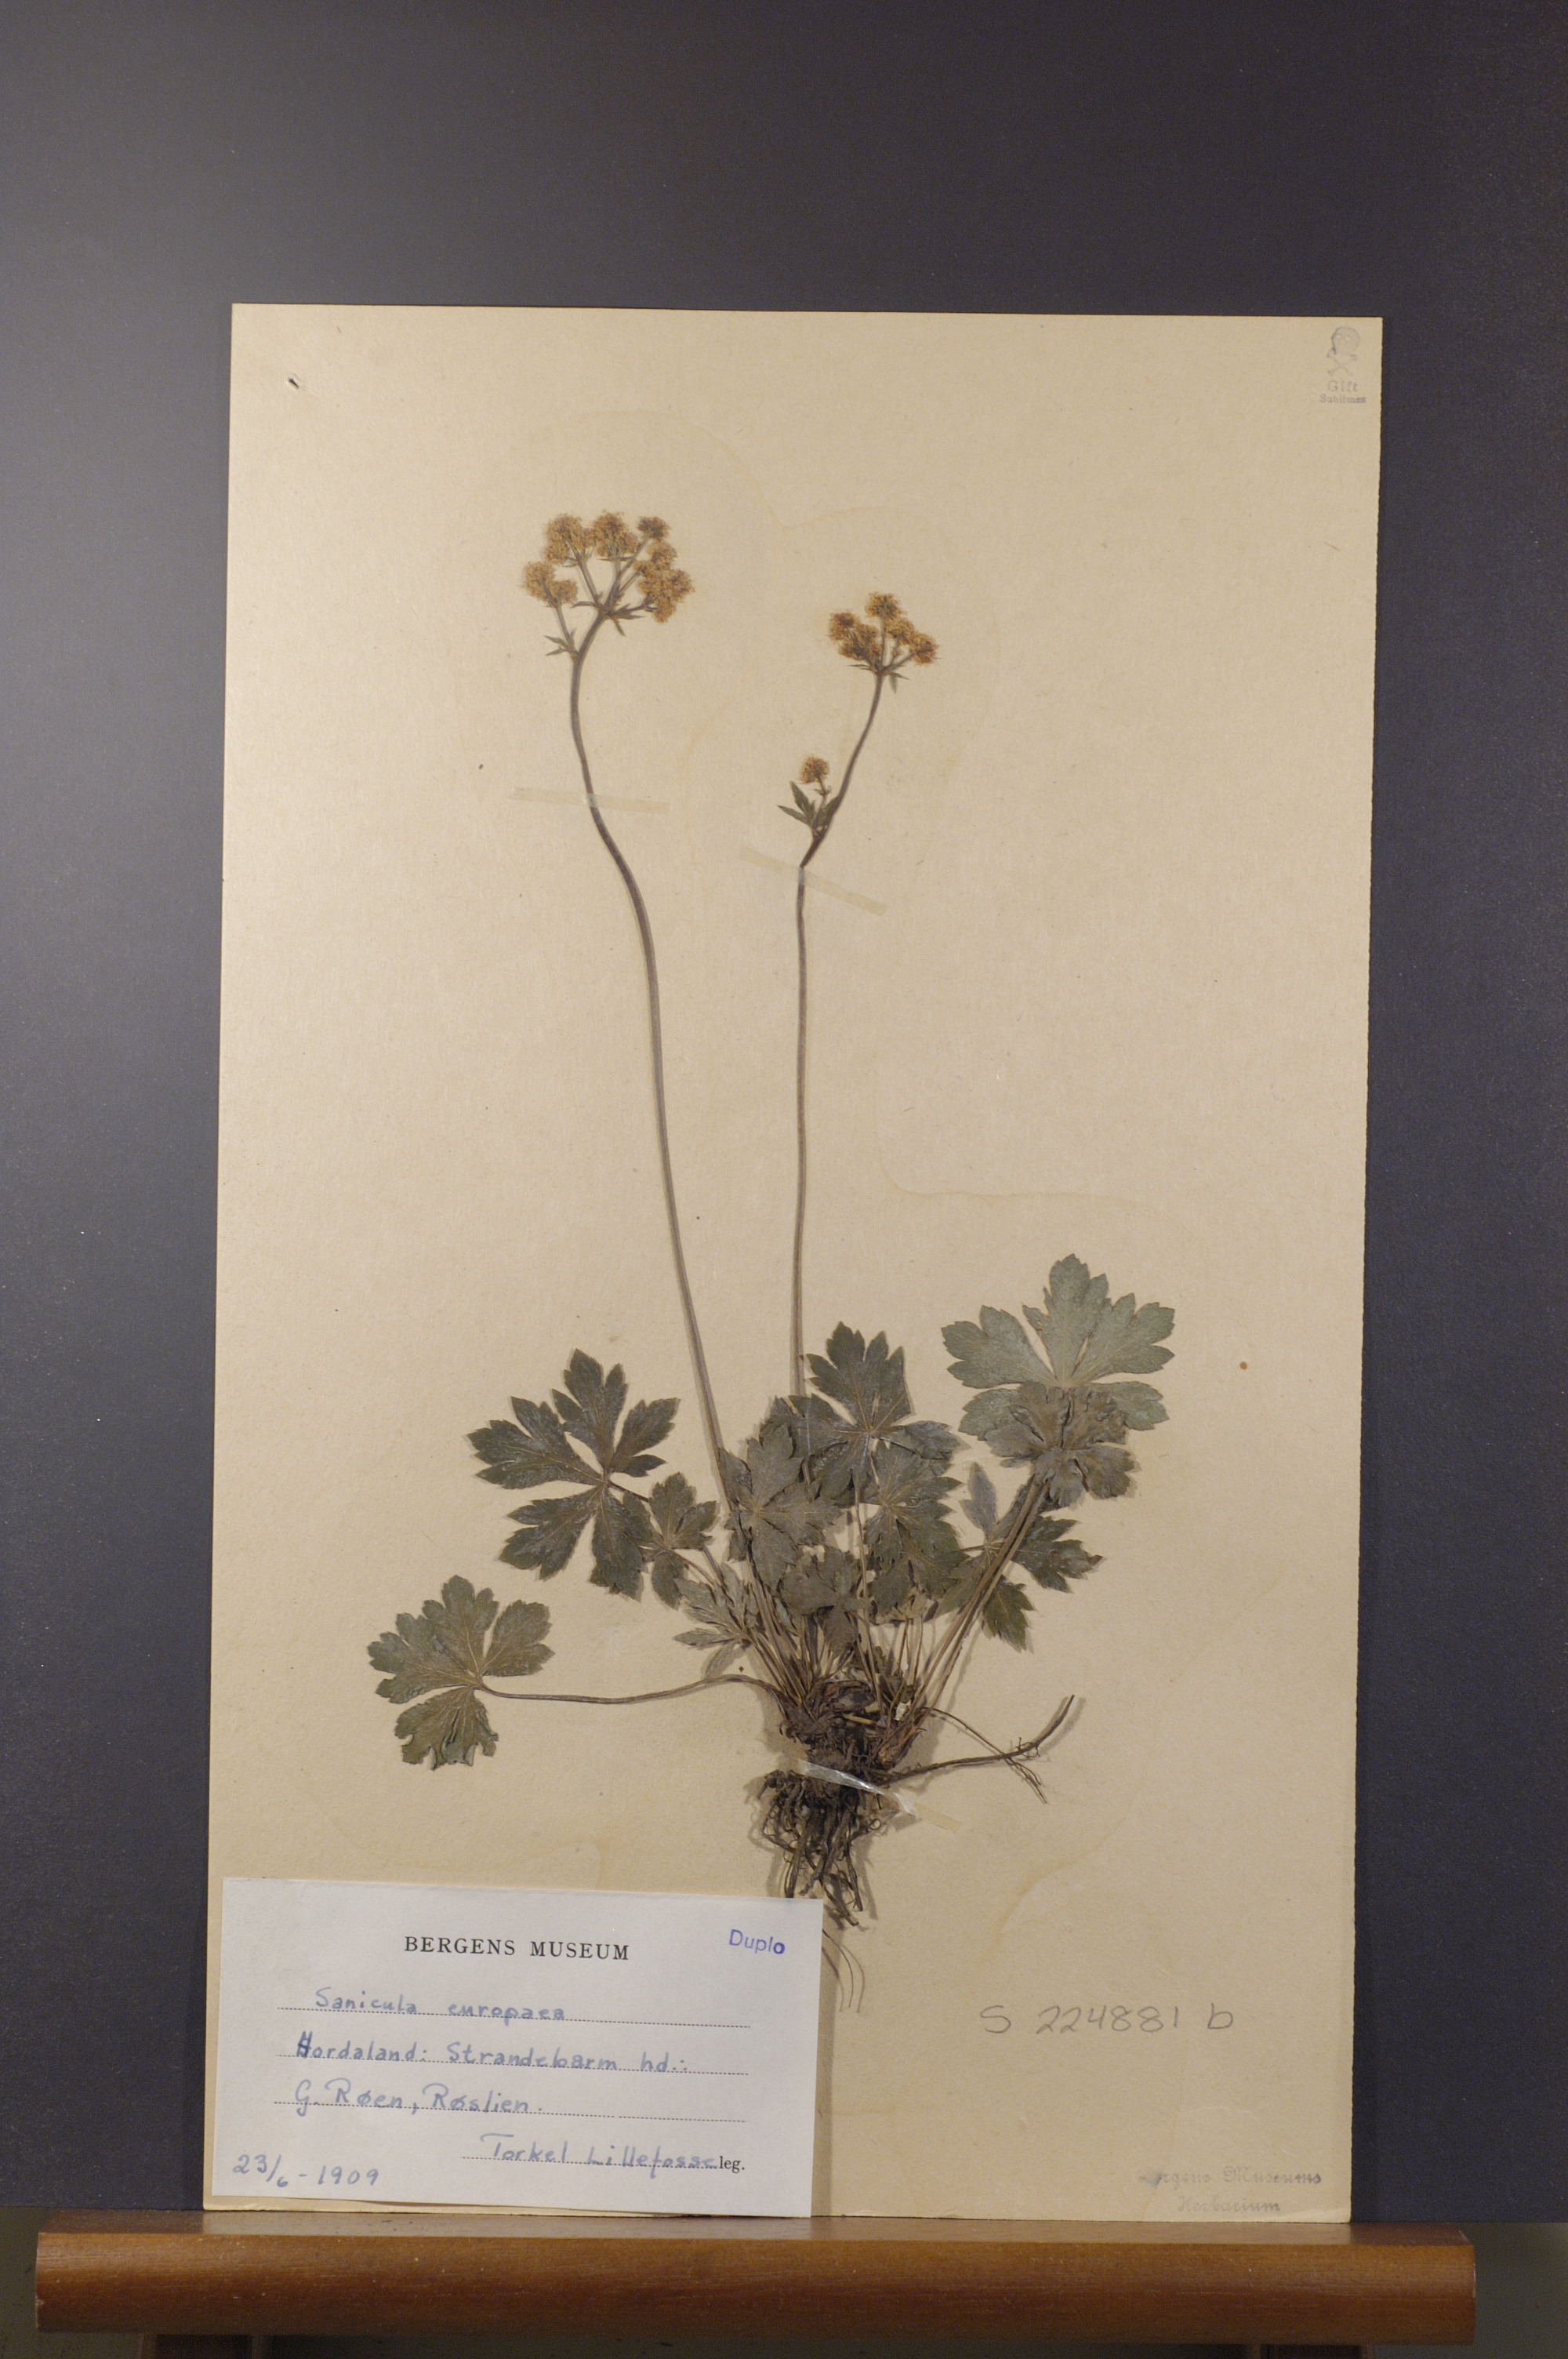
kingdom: Plantae
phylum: Tracheophyta
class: Magnoliopsida
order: Apiales
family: Apiaceae
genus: Sanicula
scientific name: Sanicula europaea
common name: Sanicle
